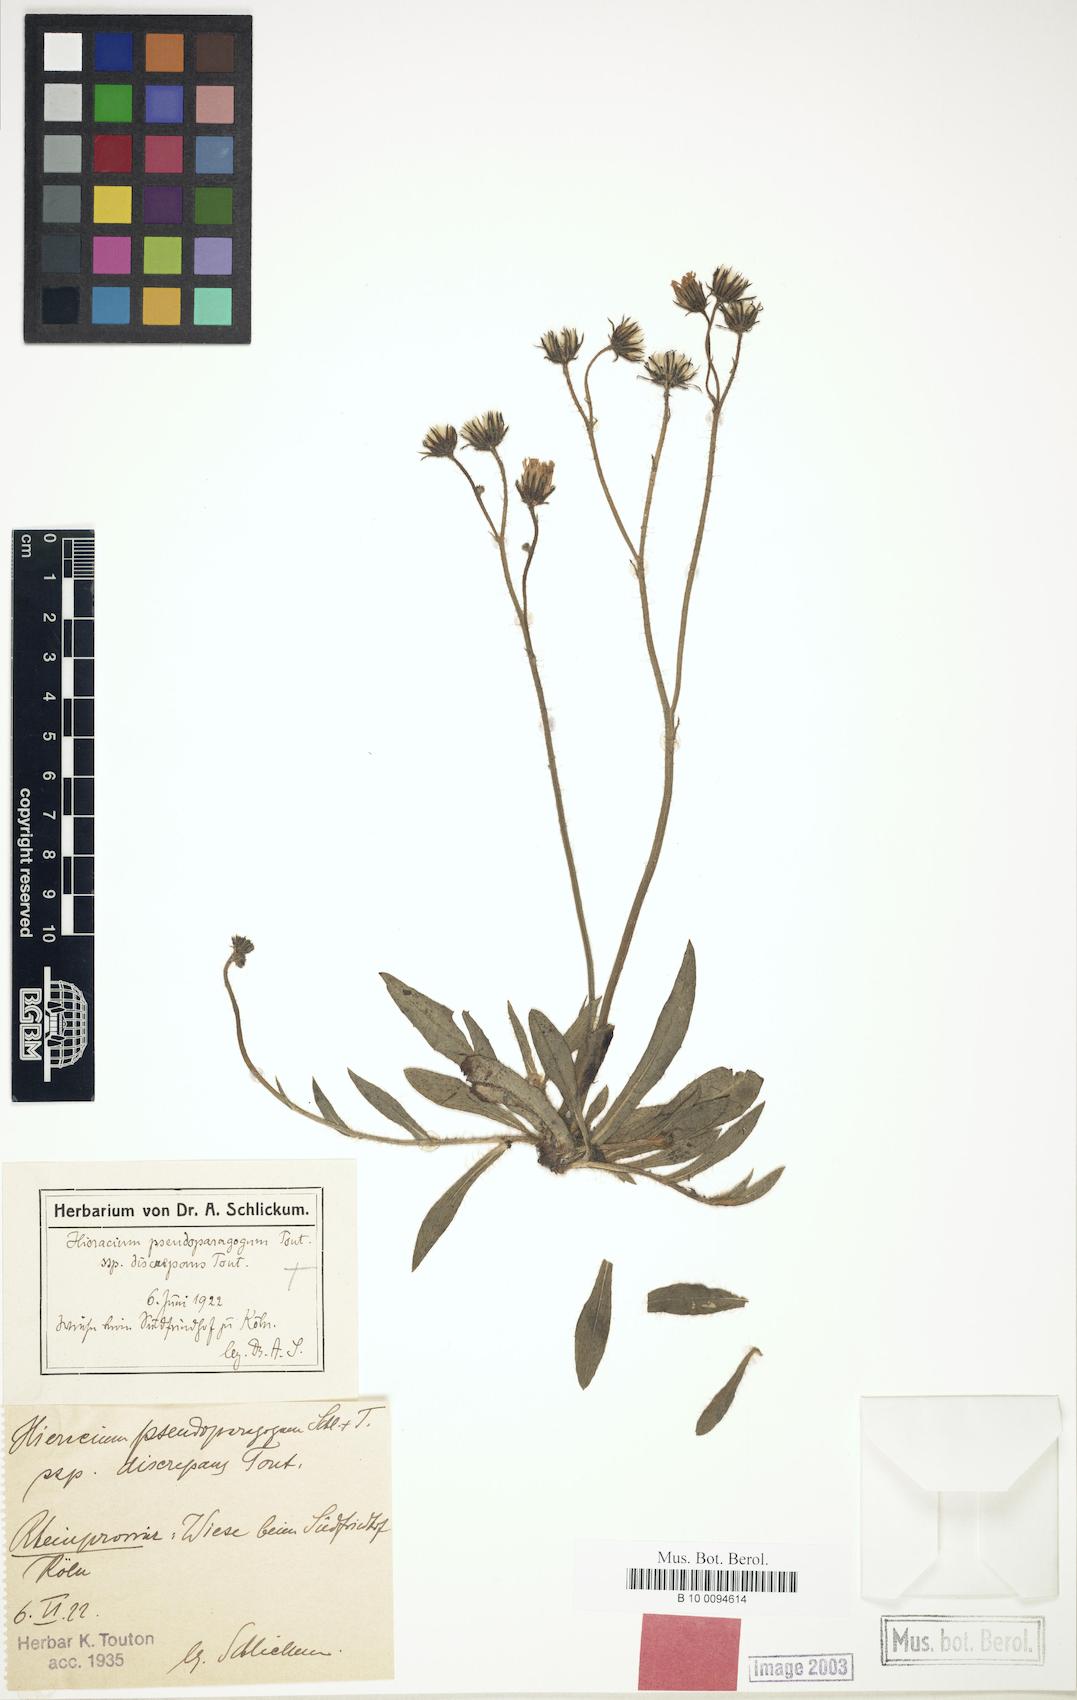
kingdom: Plantae
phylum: Tracheophyta
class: Magnoliopsida
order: Asterales
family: Asteraceae
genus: Pilosella
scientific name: Pilosella pseudoparagoga
